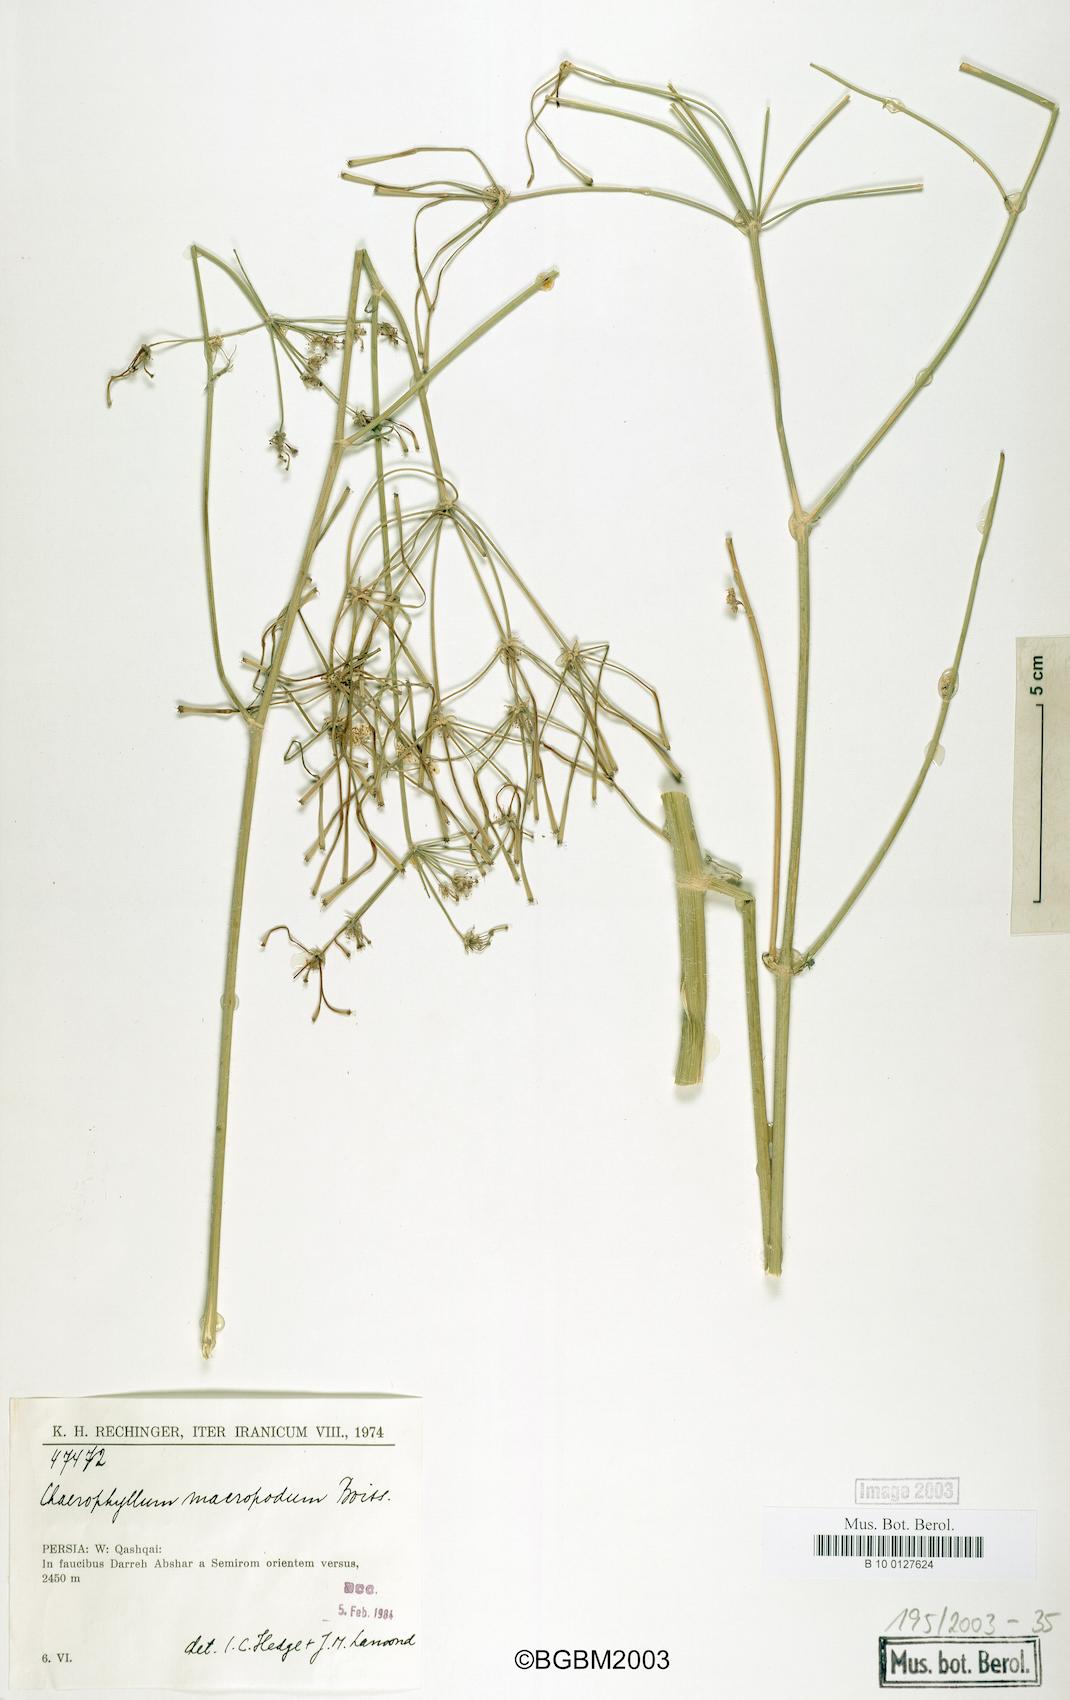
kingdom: Plantae
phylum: Tracheophyta
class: Magnoliopsida
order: Apiales
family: Apiaceae
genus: Chaerophyllum
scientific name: Chaerophyllum macropodum
